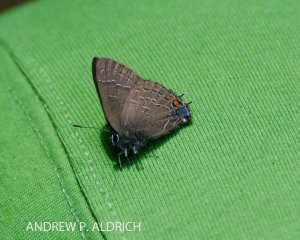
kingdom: Animalia
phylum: Arthropoda
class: Insecta
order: Lepidoptera
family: Lycaenidae
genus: Satyrium
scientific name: Satyrium calanus
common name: Banded Hairstreak
